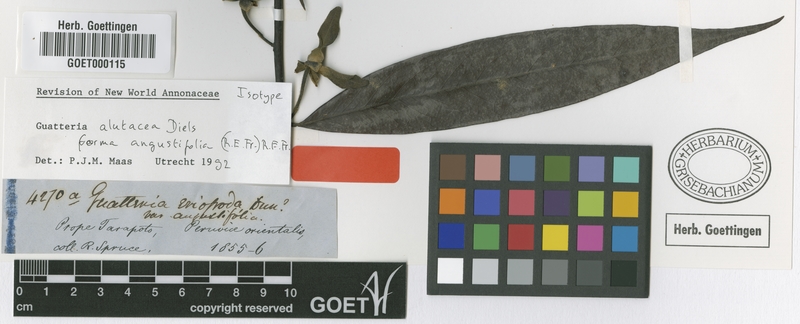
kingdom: Plantae
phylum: Tracheophyta
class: Magnoliopsida
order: Magnoliales
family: Annonaceae
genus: Guatteria
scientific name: Guatteria alutacea
